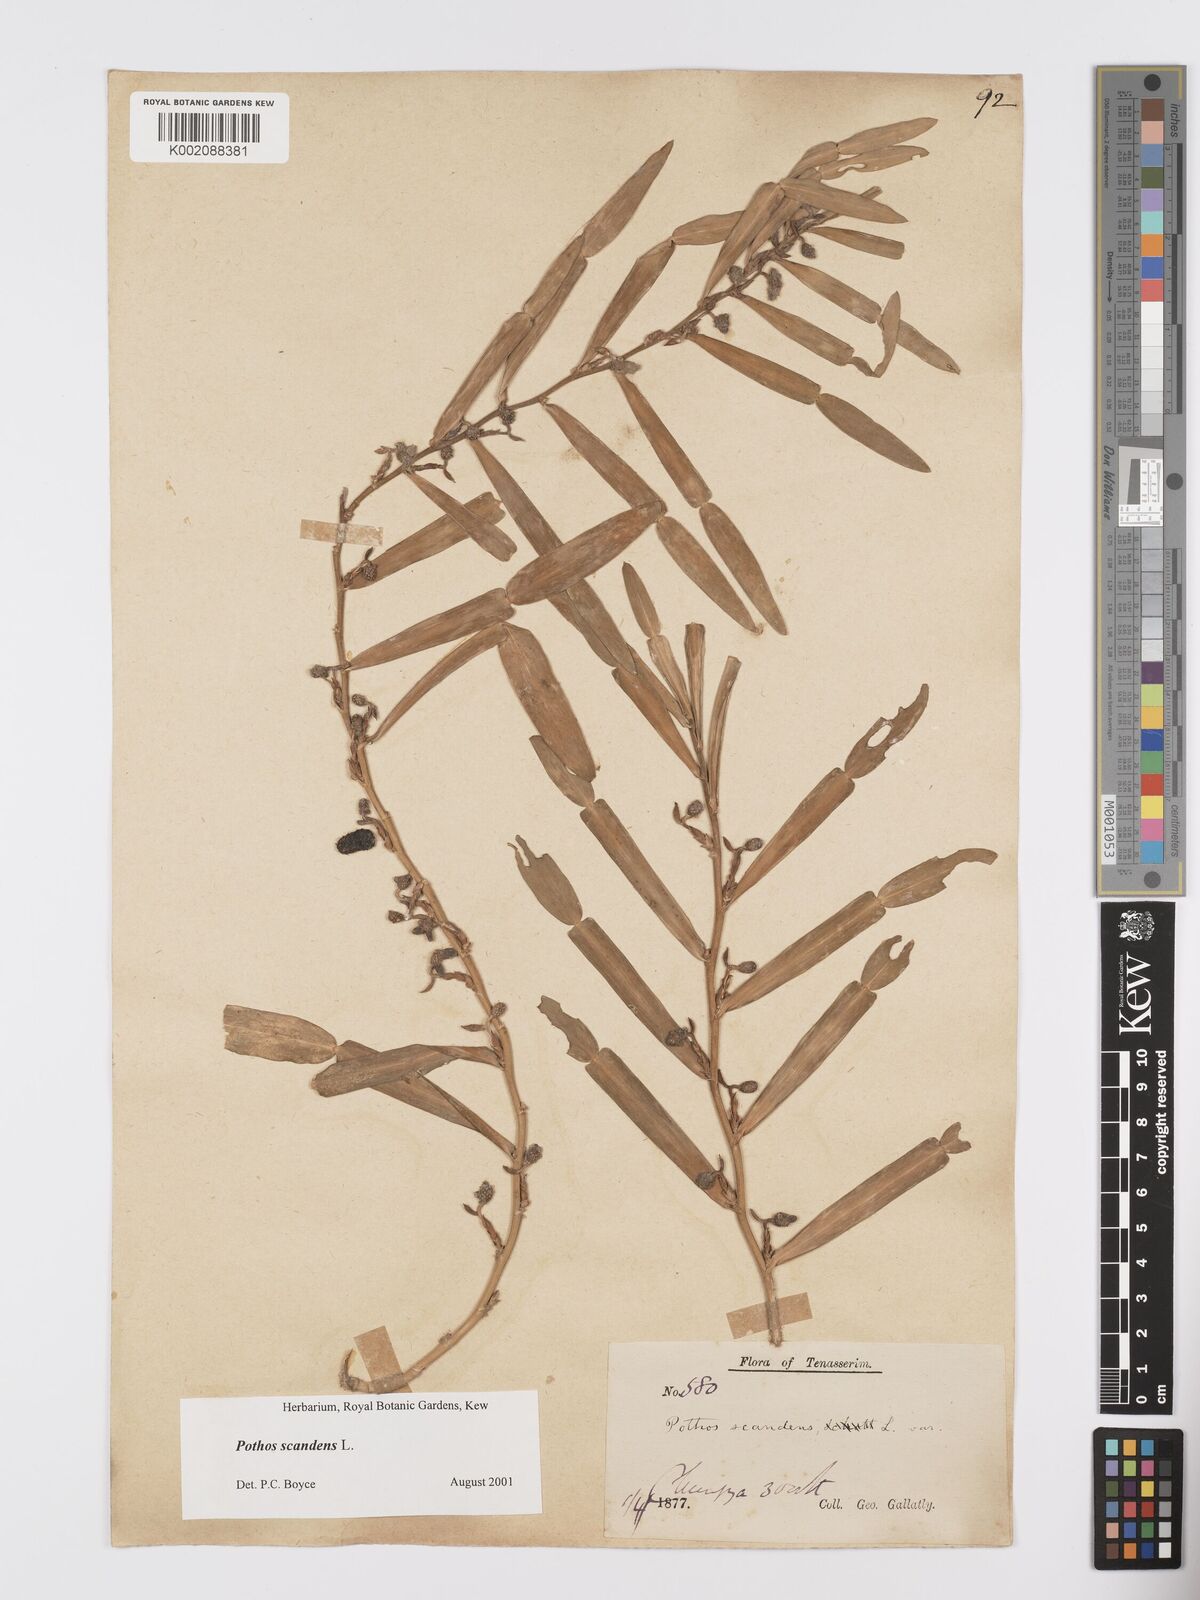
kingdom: Plantae
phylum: Tracheophyta
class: Liliopsida
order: Alismatales
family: Araceae
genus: Pothos
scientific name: Pothos scandens
